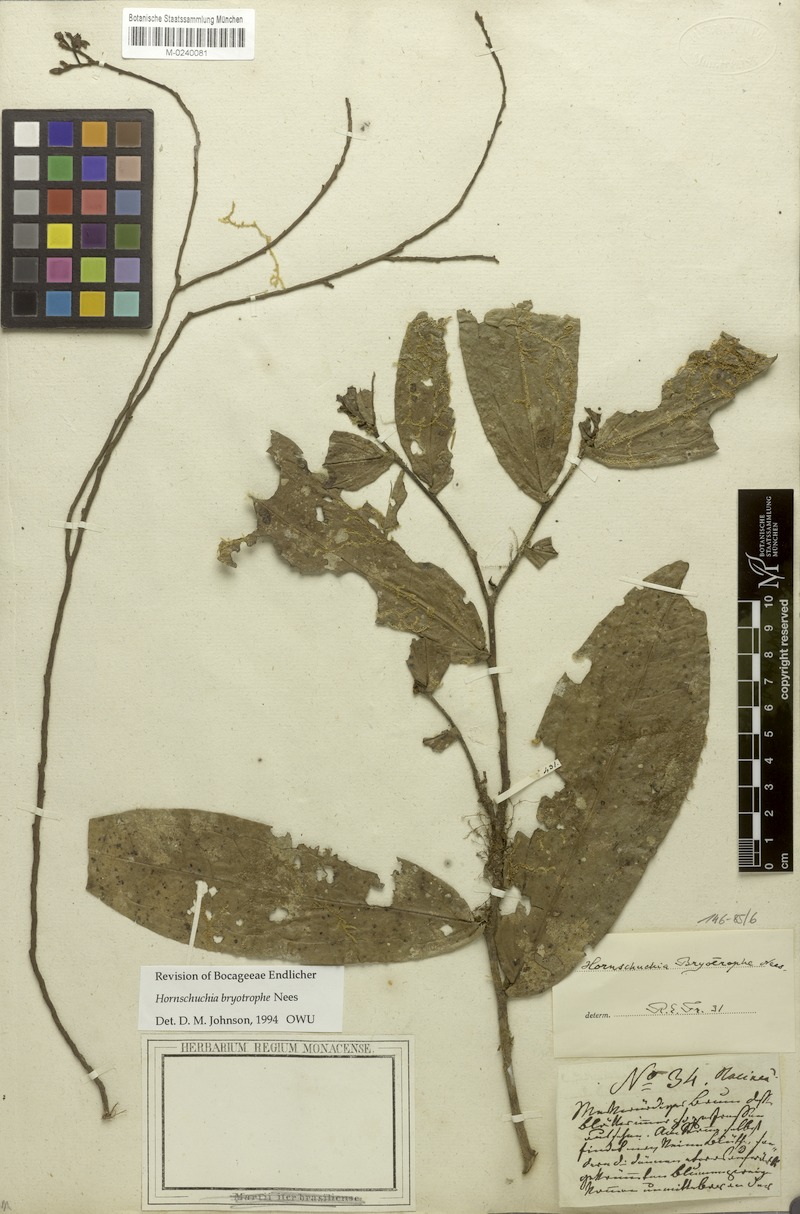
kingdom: Plantae
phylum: Tracheophyta
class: Magnoliopsida
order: Magnoliales
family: Annonaceae
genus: Hornschuchia
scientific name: Hornschuchia bryotrophe
